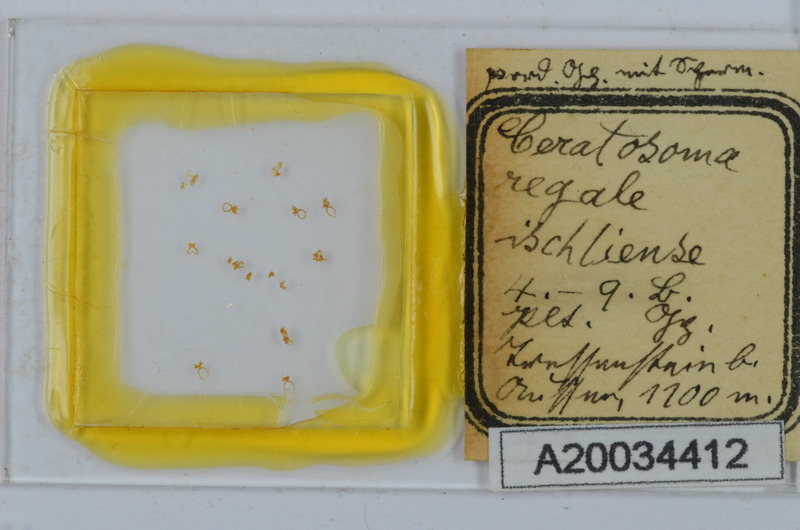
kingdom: Animalia
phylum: Arthropoda
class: Diplopoda
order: Chordeumatida
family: Craspedosomatidae
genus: Euceratosoma
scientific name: Euceratosoma regale
